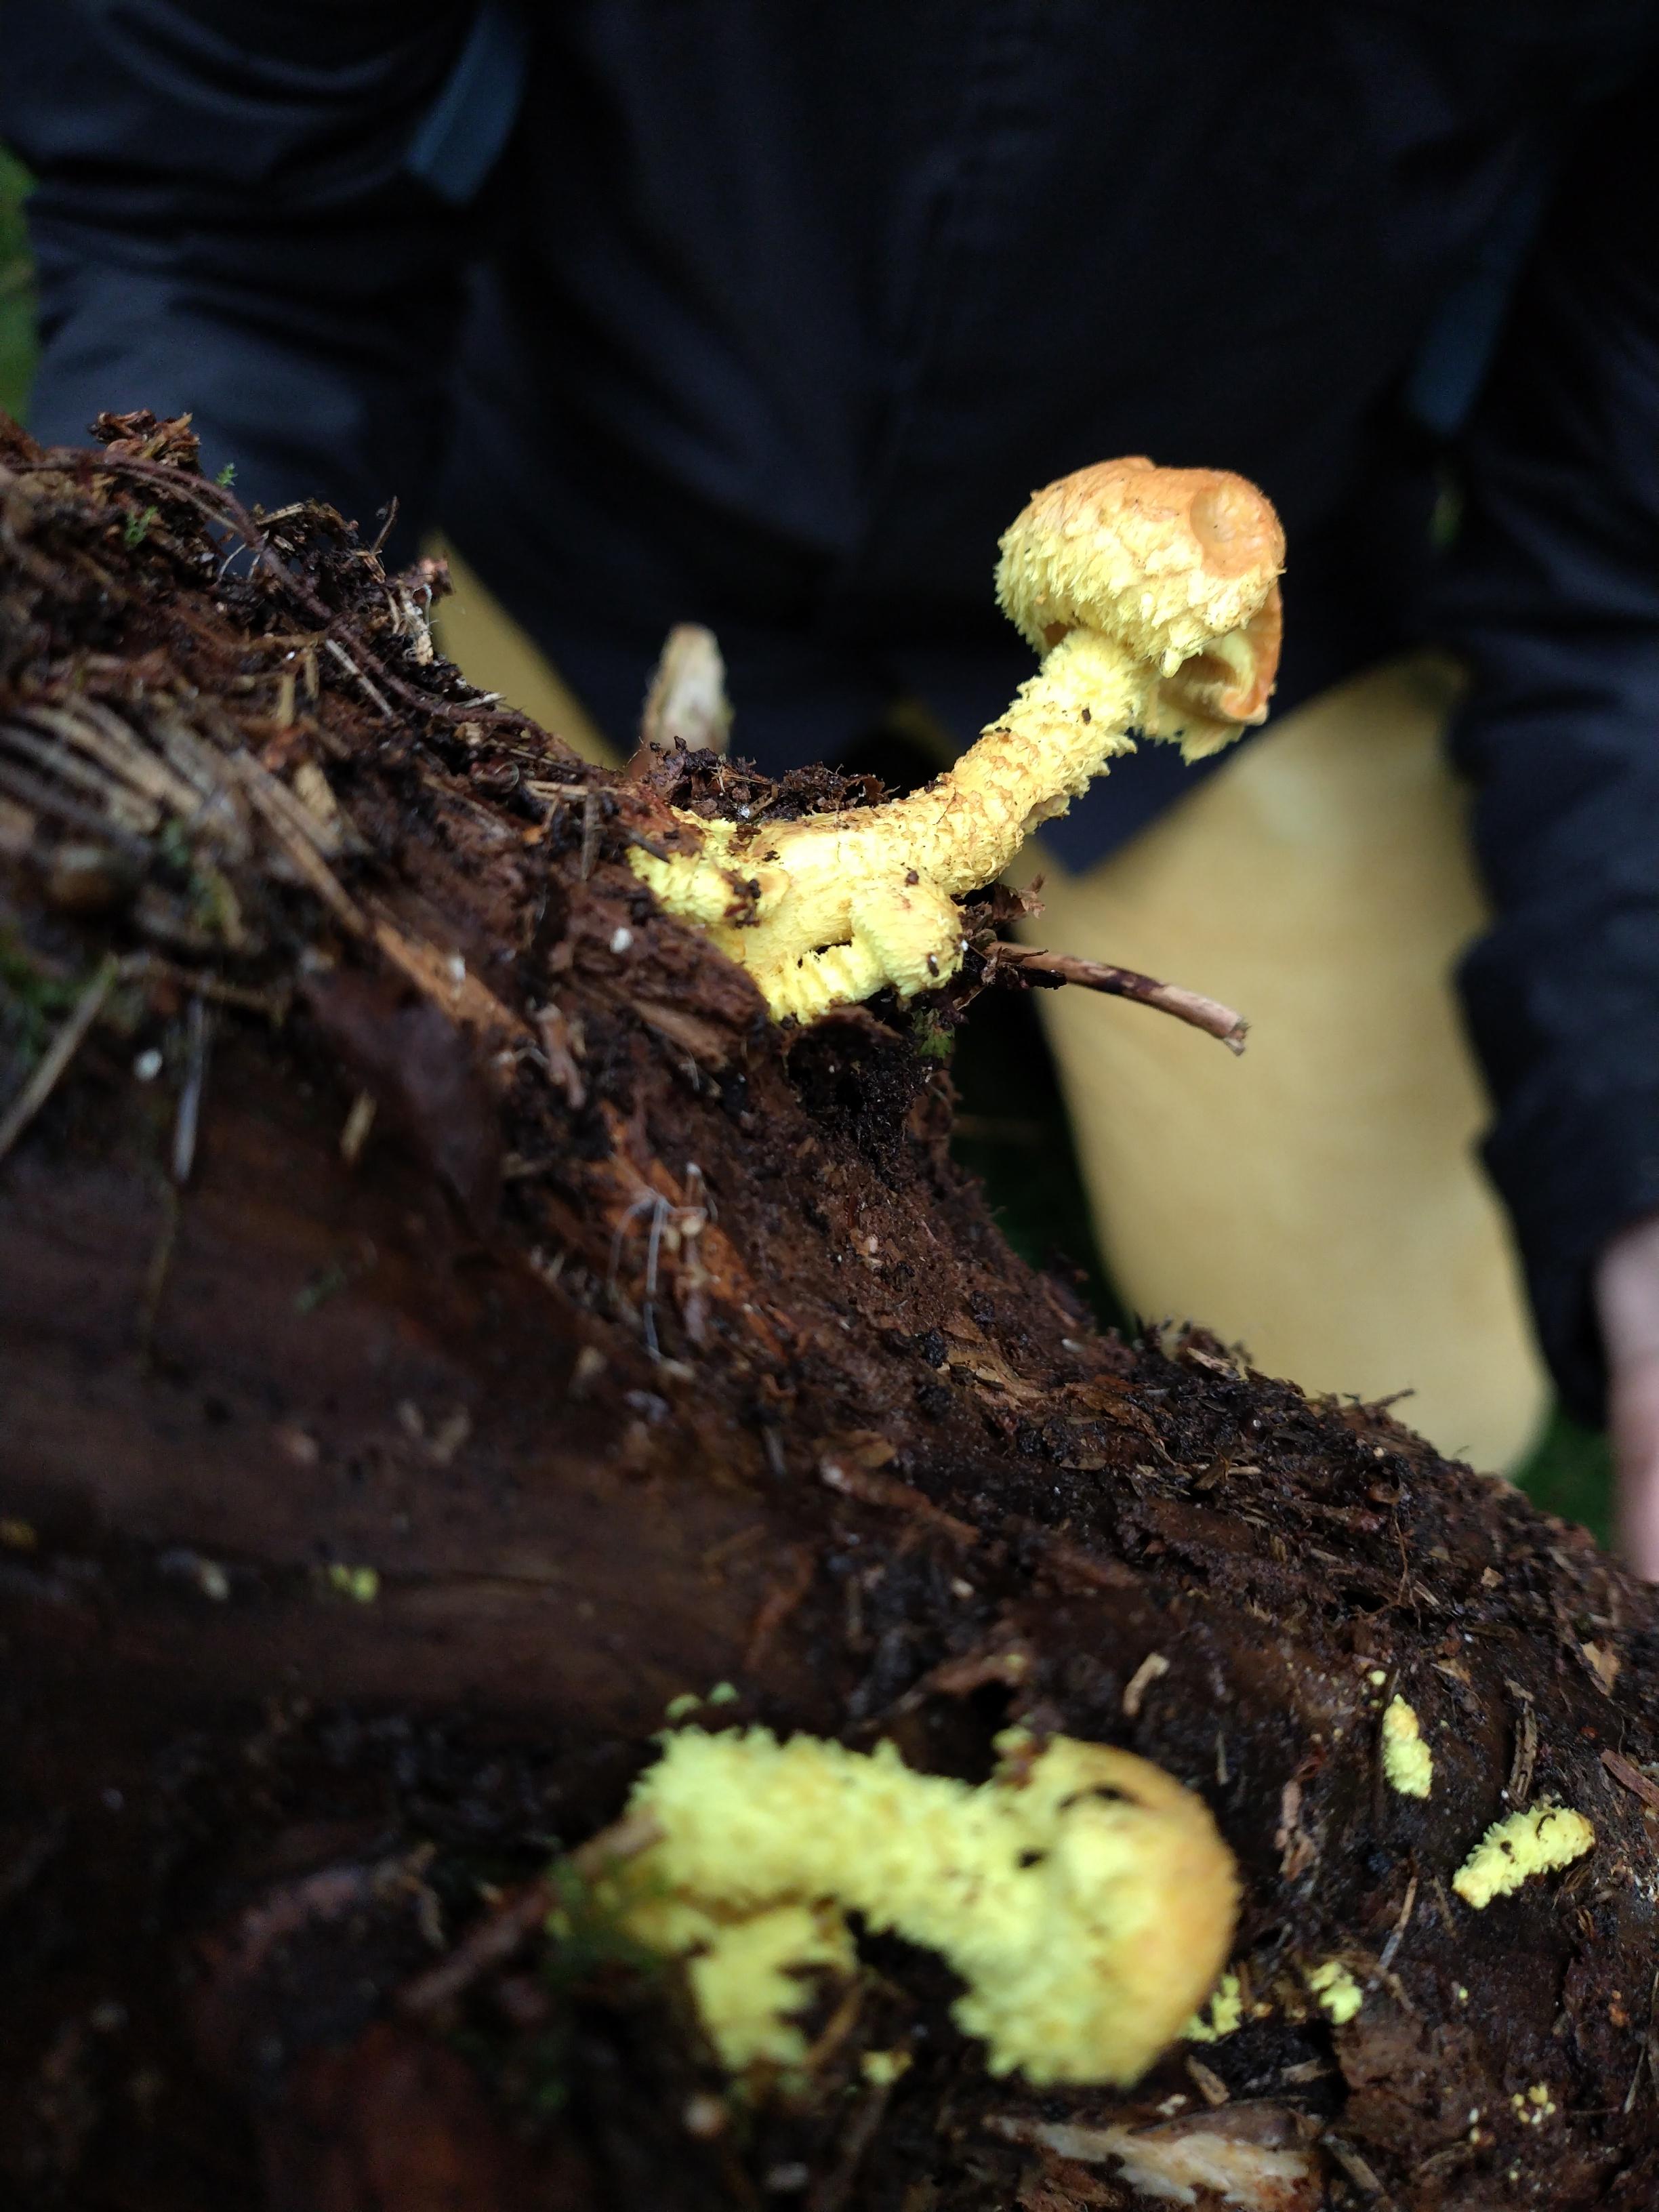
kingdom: Fungi
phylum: Basidiomycota
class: Agaricomycetes
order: Agaricales
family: Strophariaceae
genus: Pholiota
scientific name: Pholiota flammans
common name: flamme-skælhat
